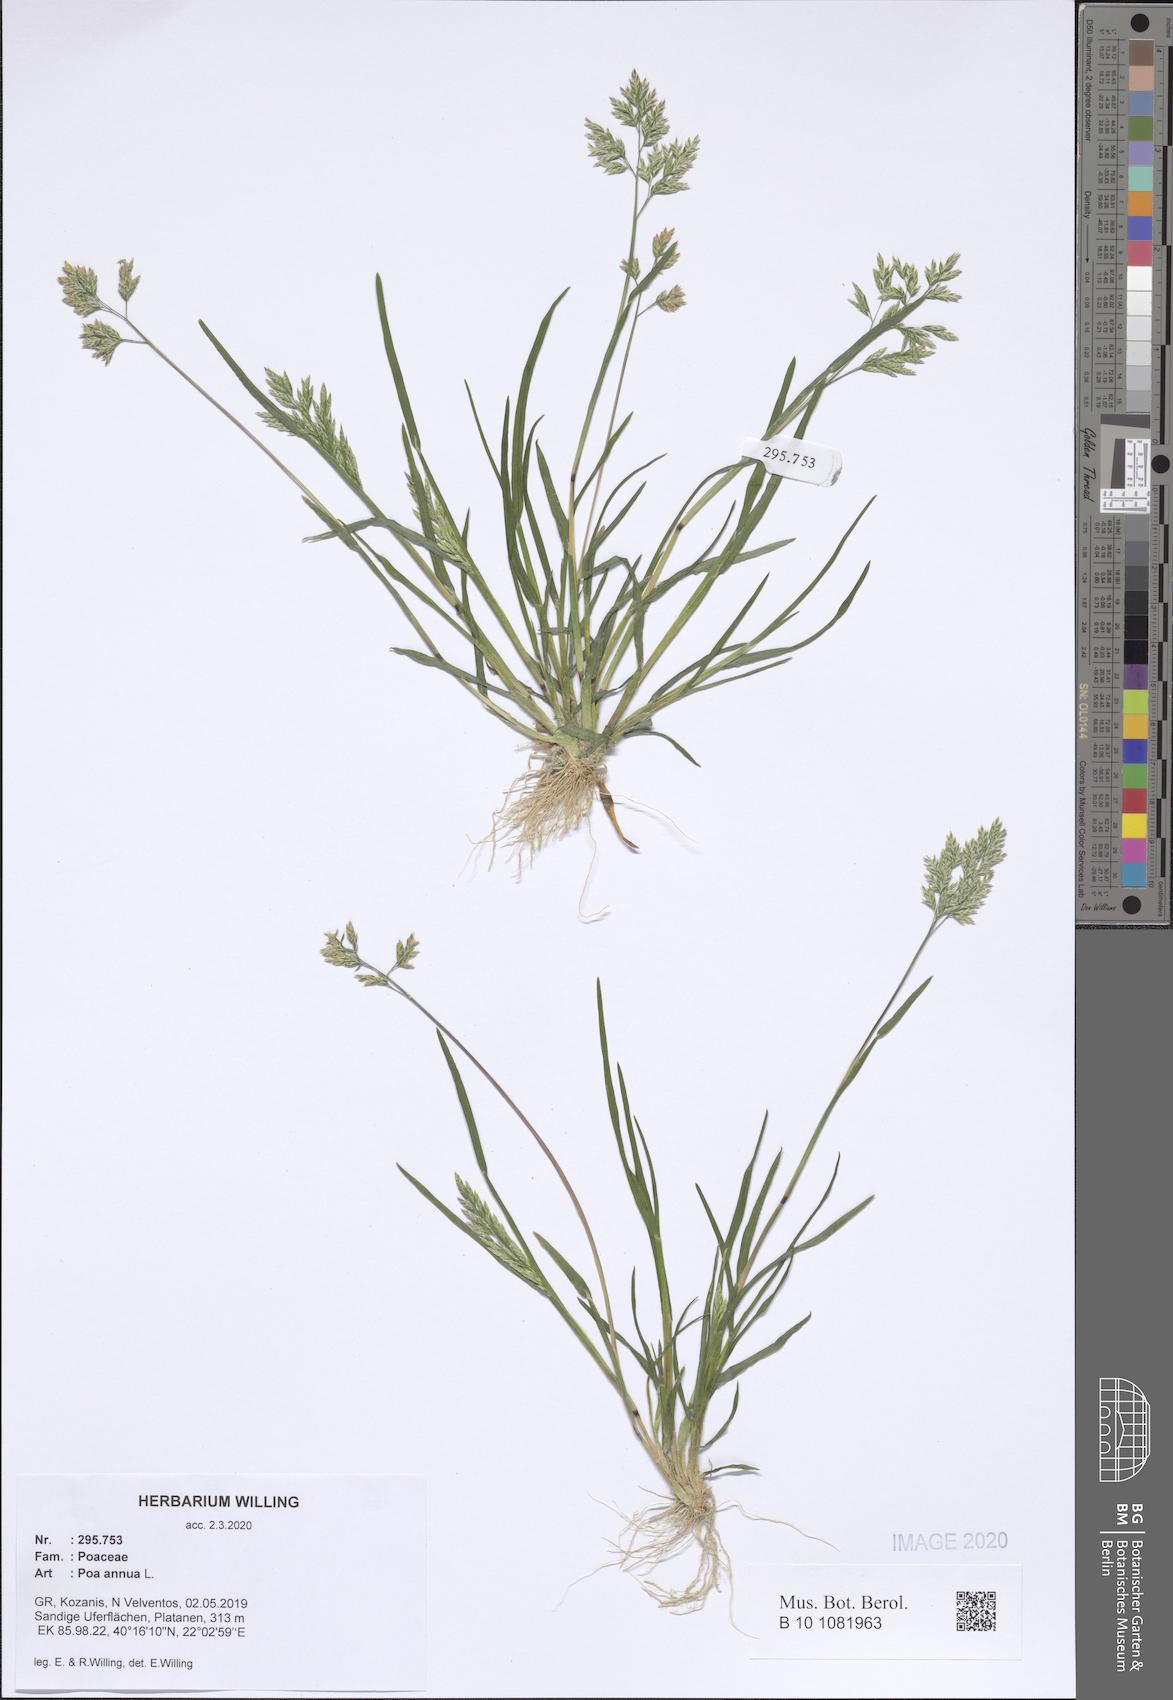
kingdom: Plantae
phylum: Tracheophyta
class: Liliopsida
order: Poales
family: Poaceae
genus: Poa
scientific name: Poa annua
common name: Annual bluegrass
